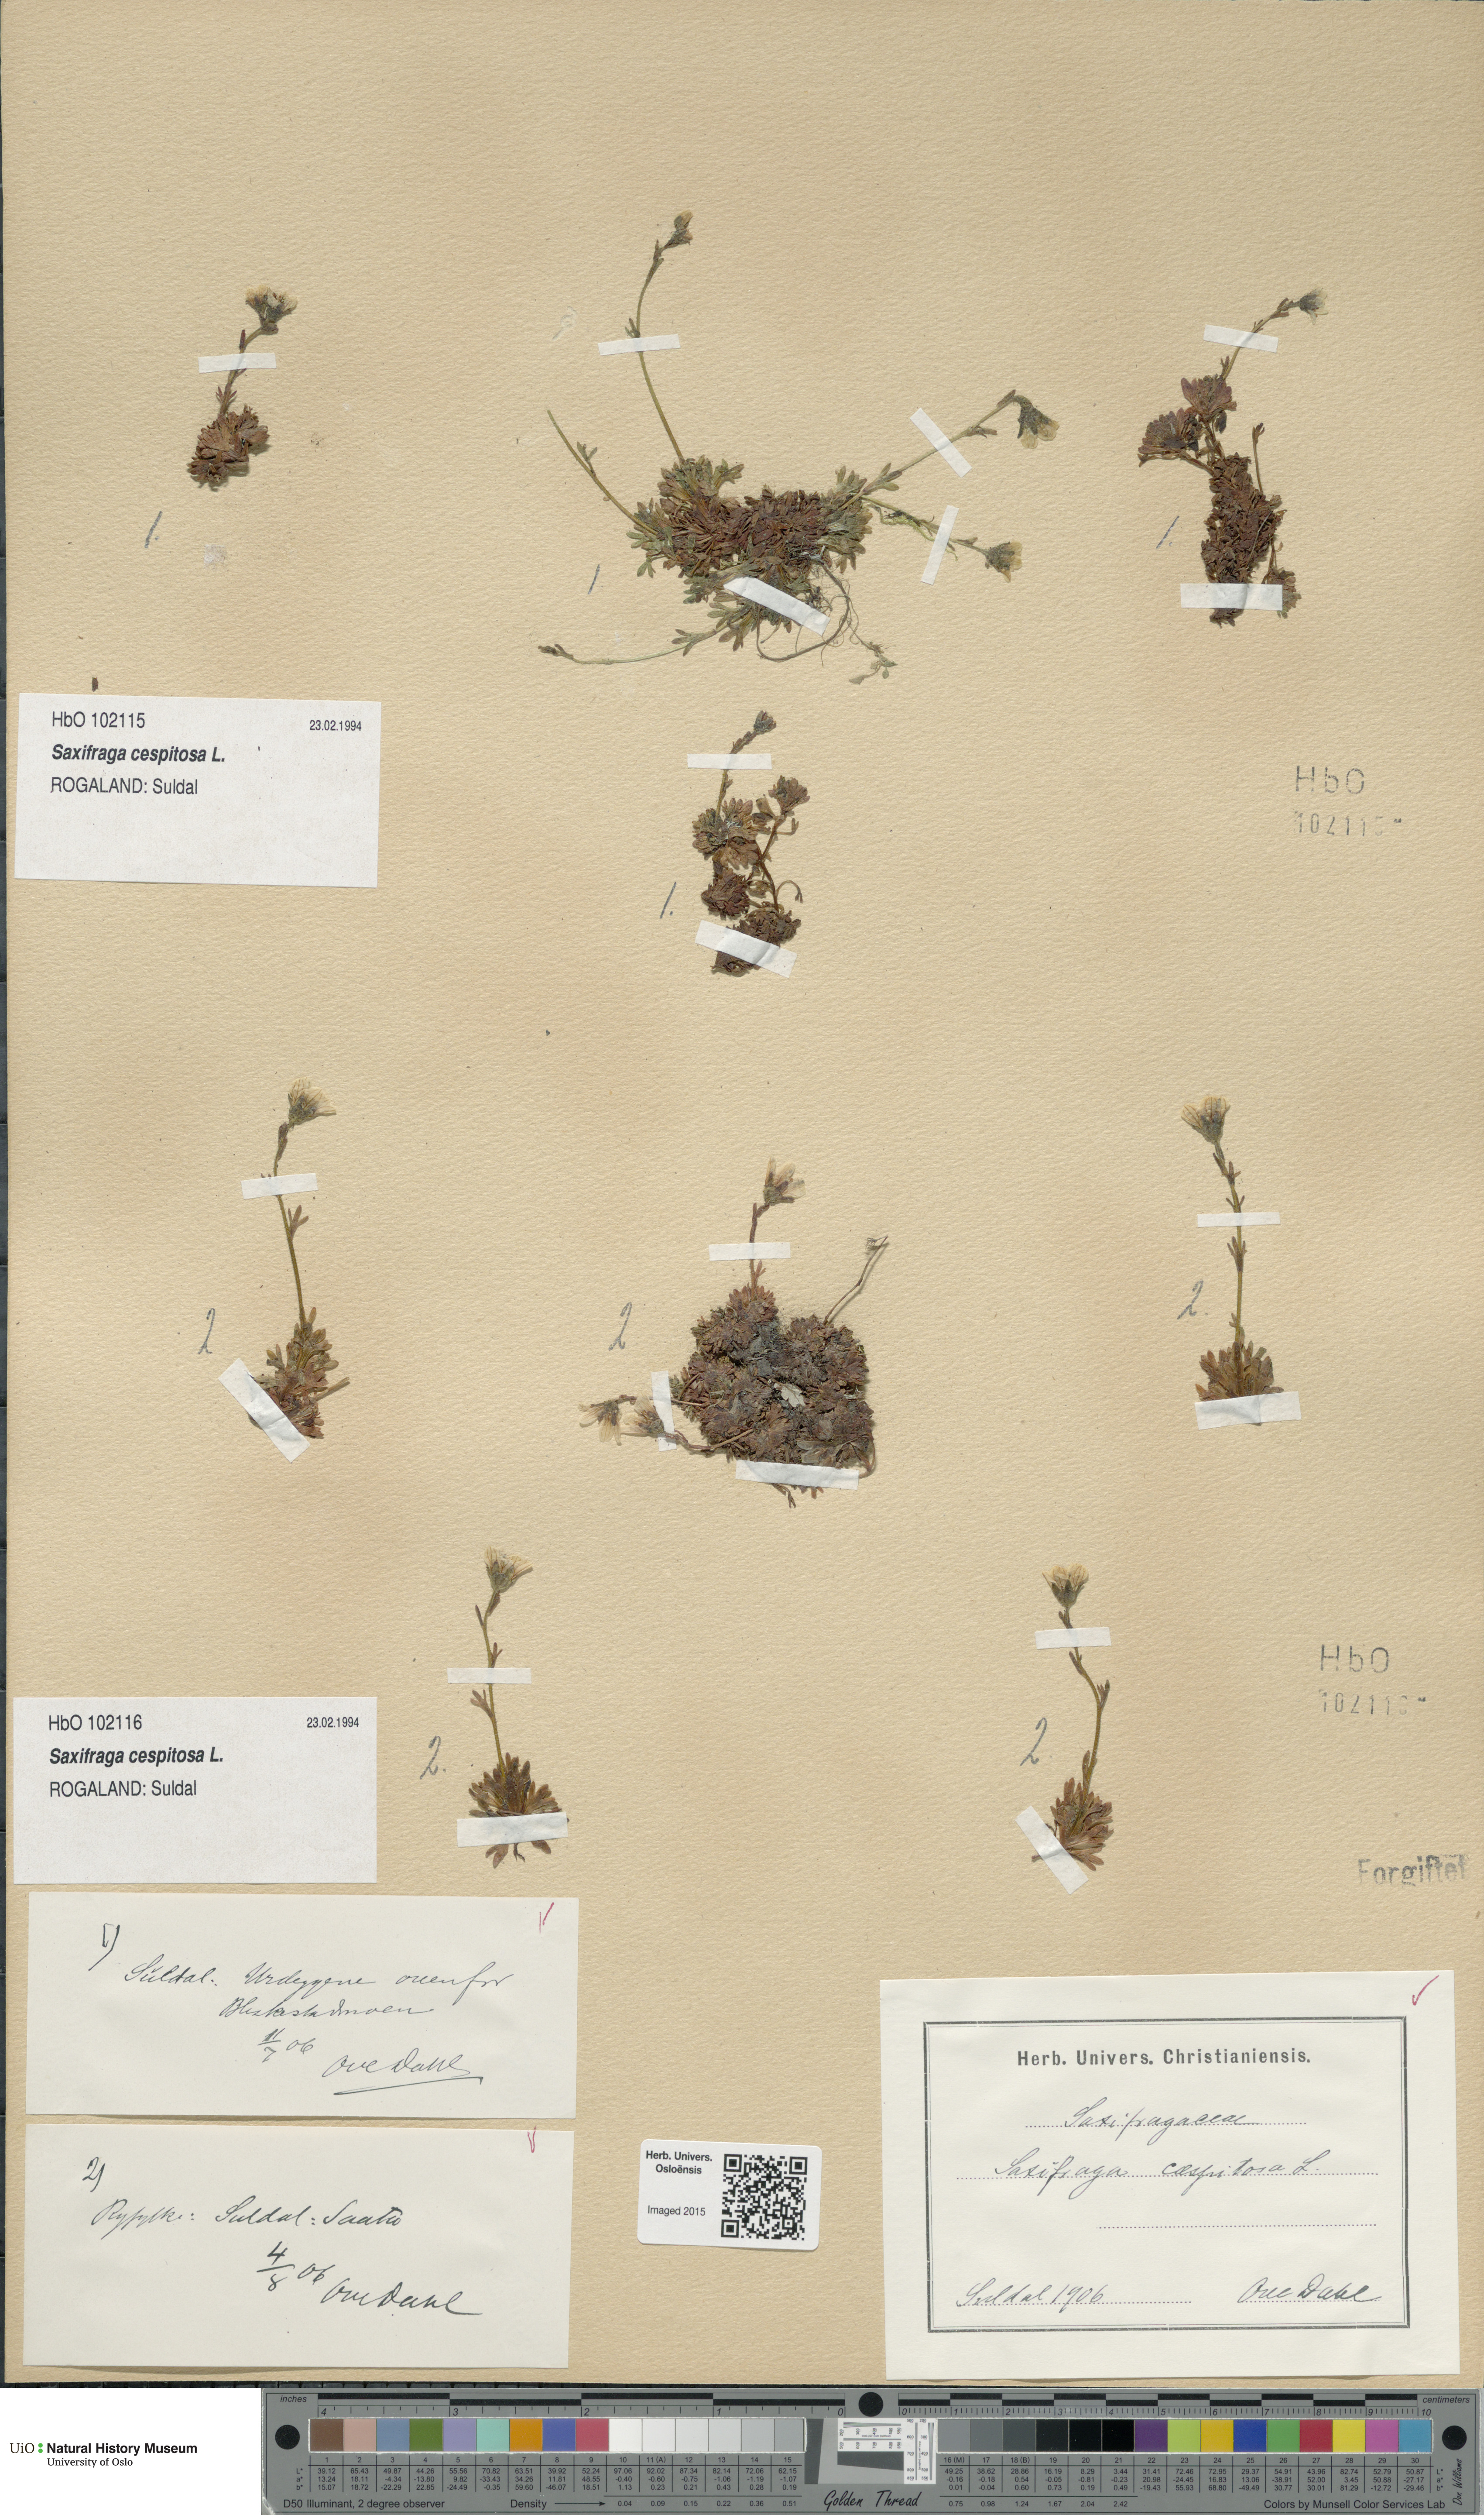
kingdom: Plantae
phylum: Tracheophyta
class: Magnoliopsida
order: Saxifragales
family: Saxifragaceae
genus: Saxifraga
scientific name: Saxifraga cespitosa
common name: Tufted saxifrage
